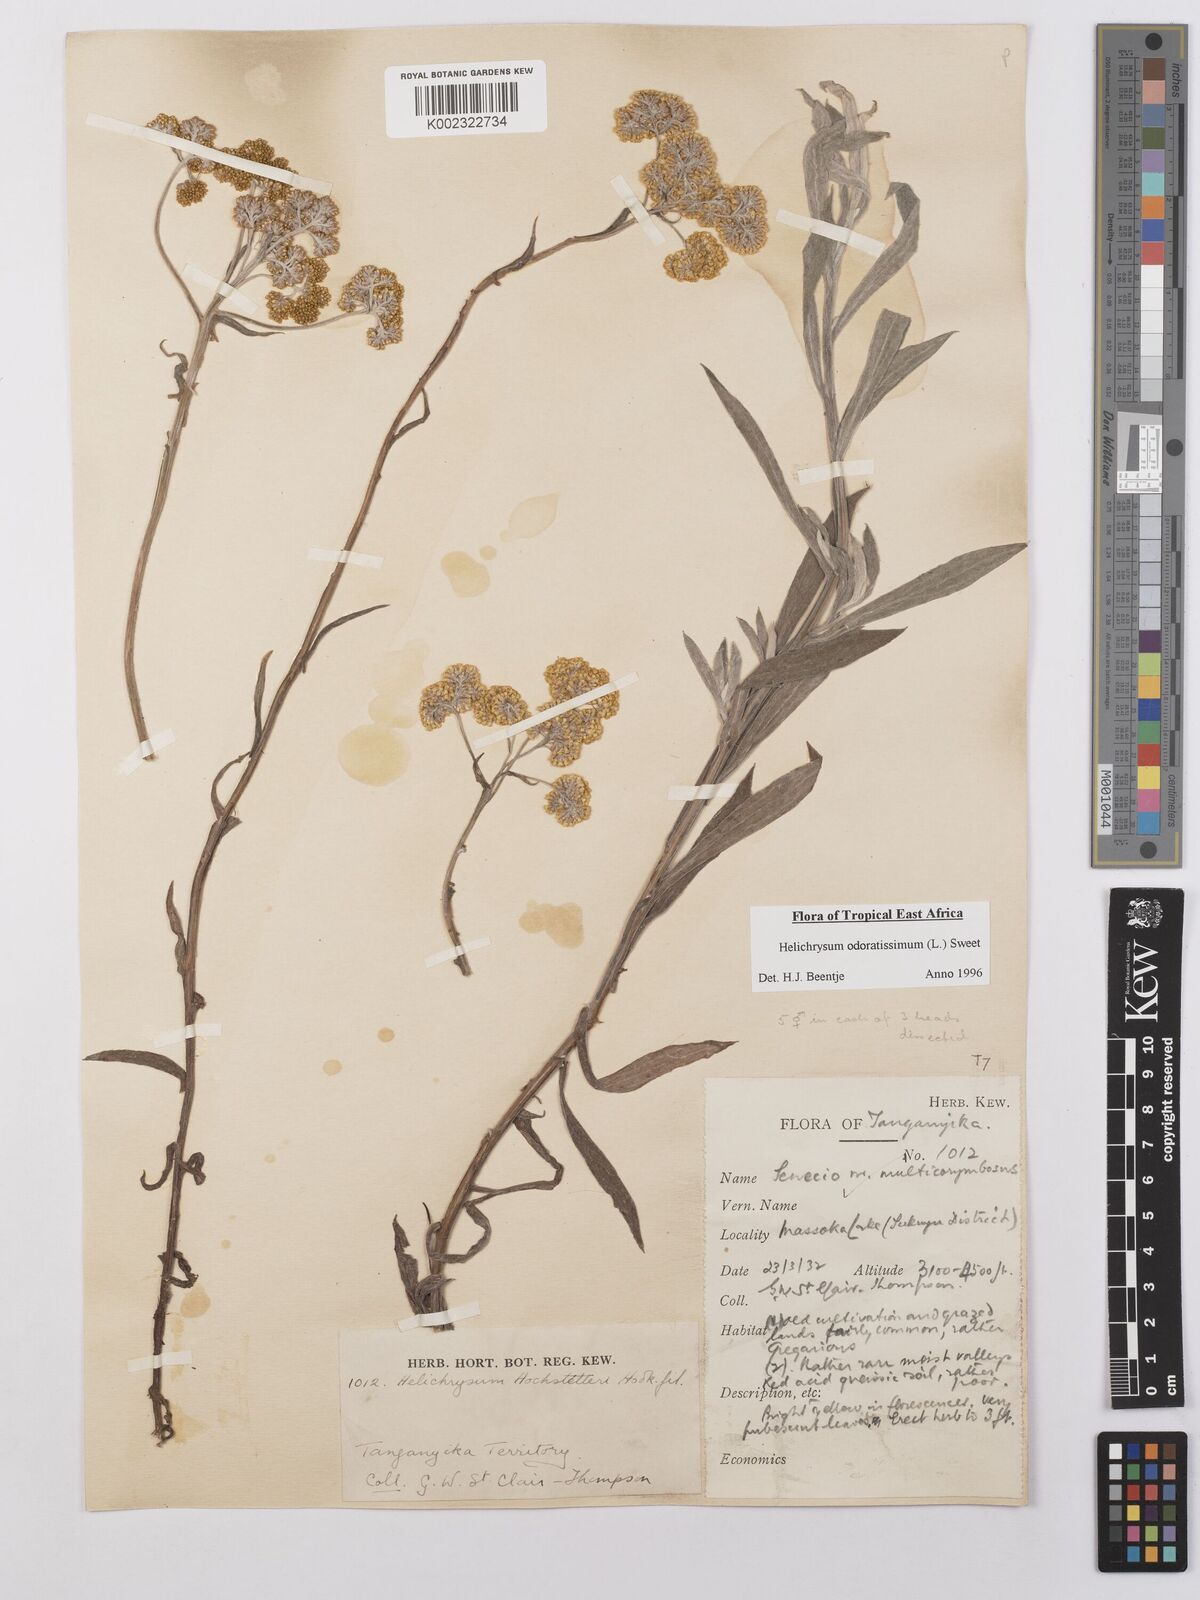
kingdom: Plantae
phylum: Tracheophyta
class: Magnoliopsida
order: Asterales
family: Asteraceae
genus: Helichrysum
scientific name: Helichrysum odoratissimum
